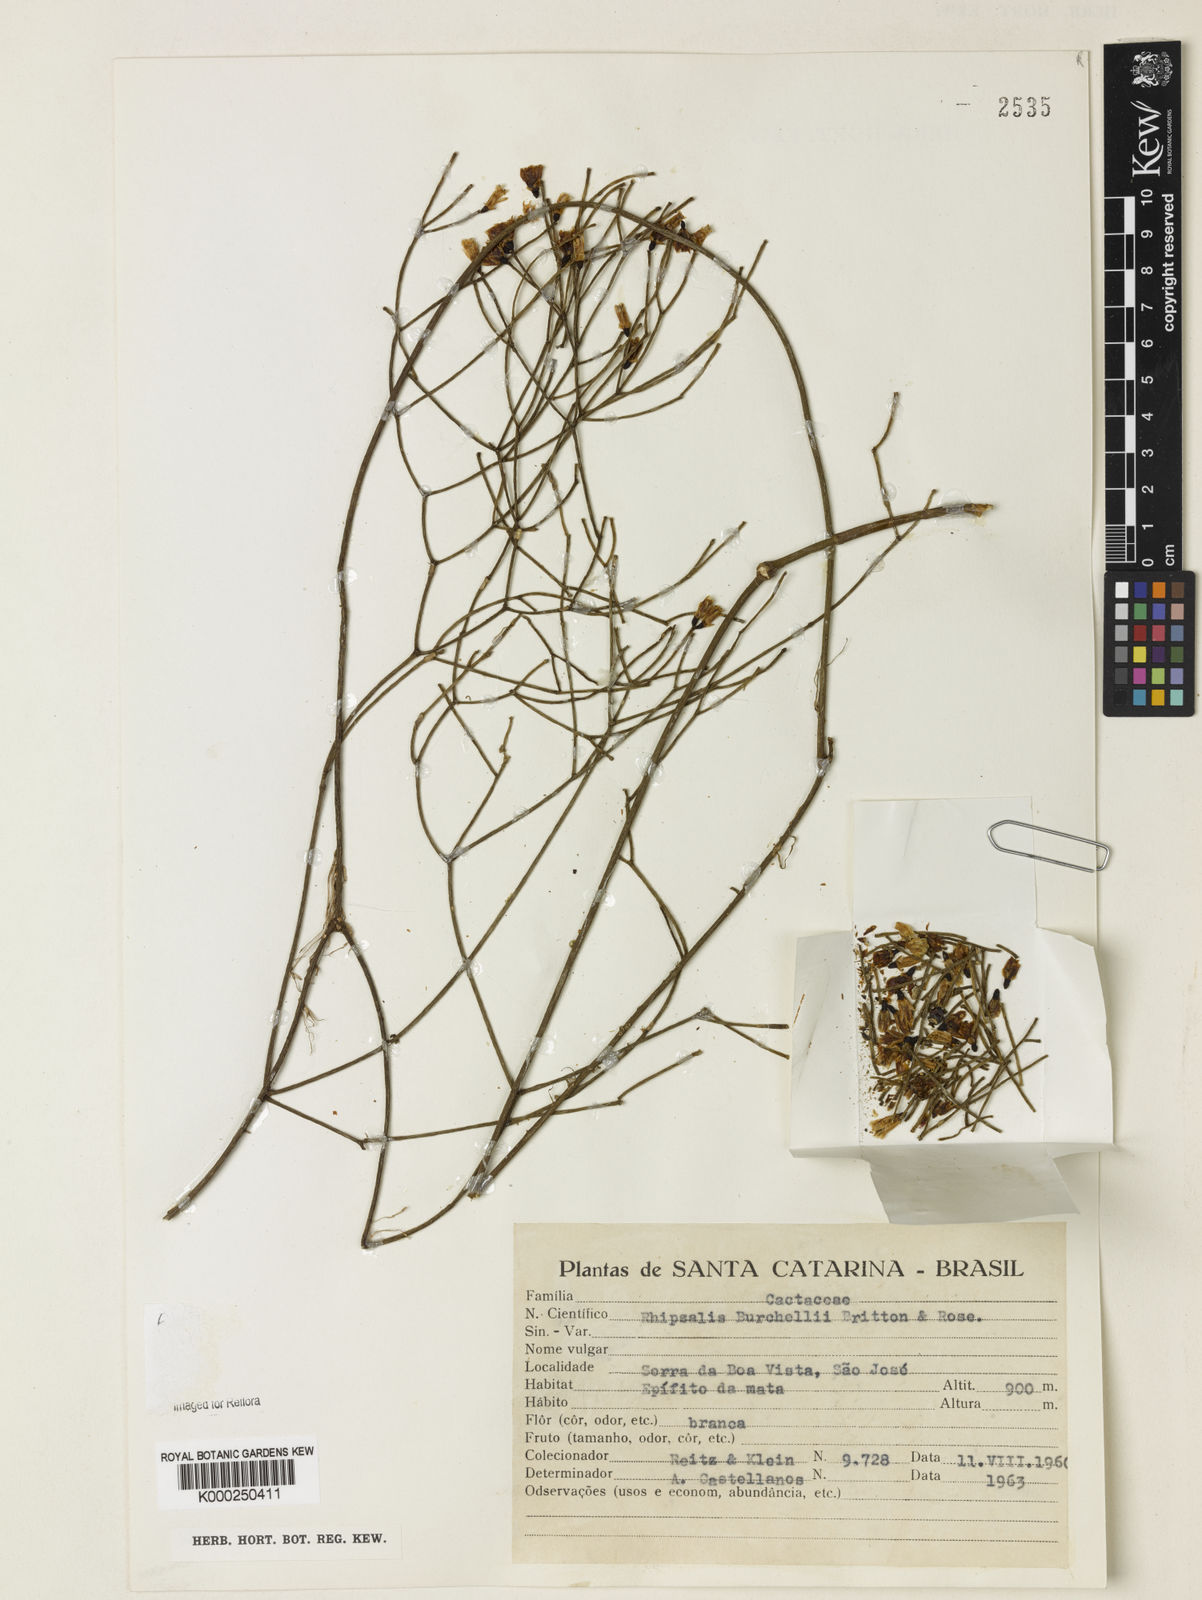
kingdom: Plantae
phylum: Tracheophyta
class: Magnoliopsida
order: Caryophyllales
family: Cactaceae
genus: Rhipsalis
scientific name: Rhipsalis
